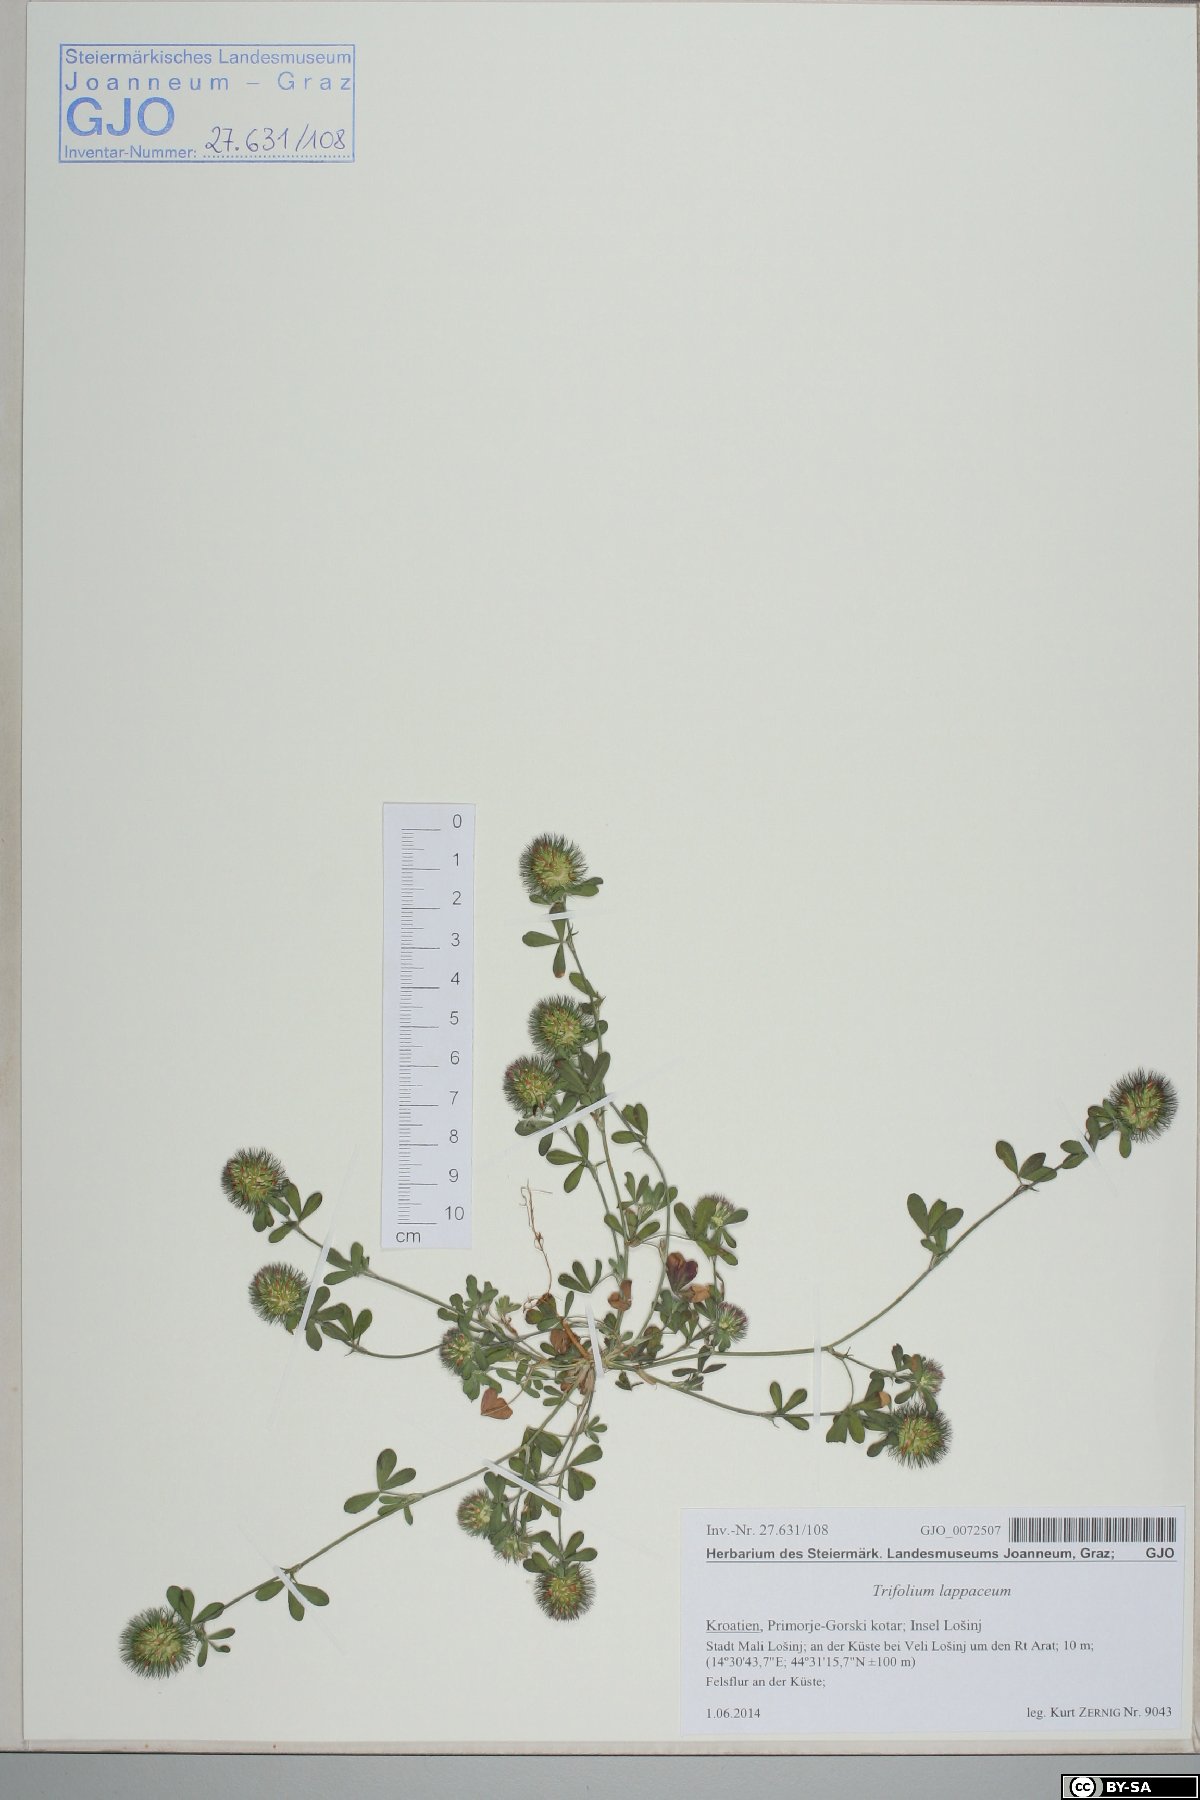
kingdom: Plantae
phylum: Tracheophyta
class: Magnoliopsida
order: Fabales
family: Fabaceae
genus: Trifolium
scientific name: Trifolium lappaceum
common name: Bur clover
